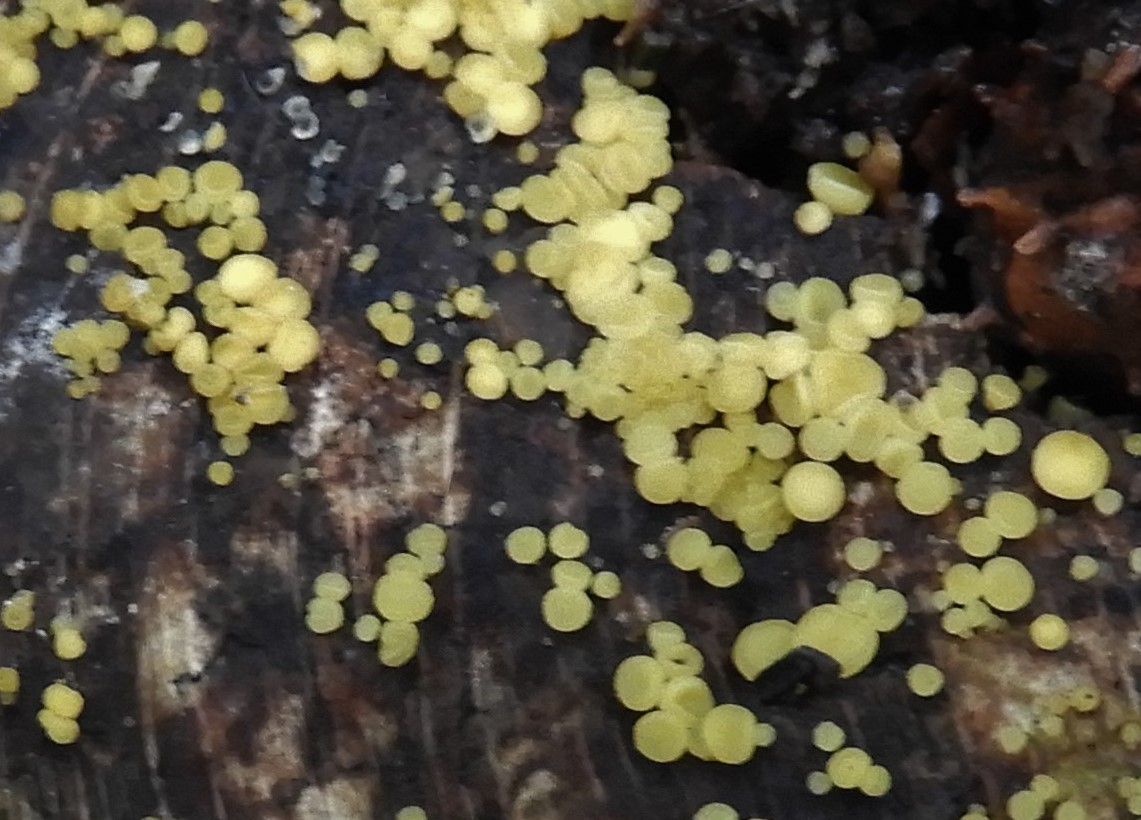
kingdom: Fungi
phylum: Ascomycota
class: Leotiomycetes
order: Helotiales
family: Pezizellaceae
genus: Calycina
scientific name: Calycina citrina
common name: almindelig gulskive
